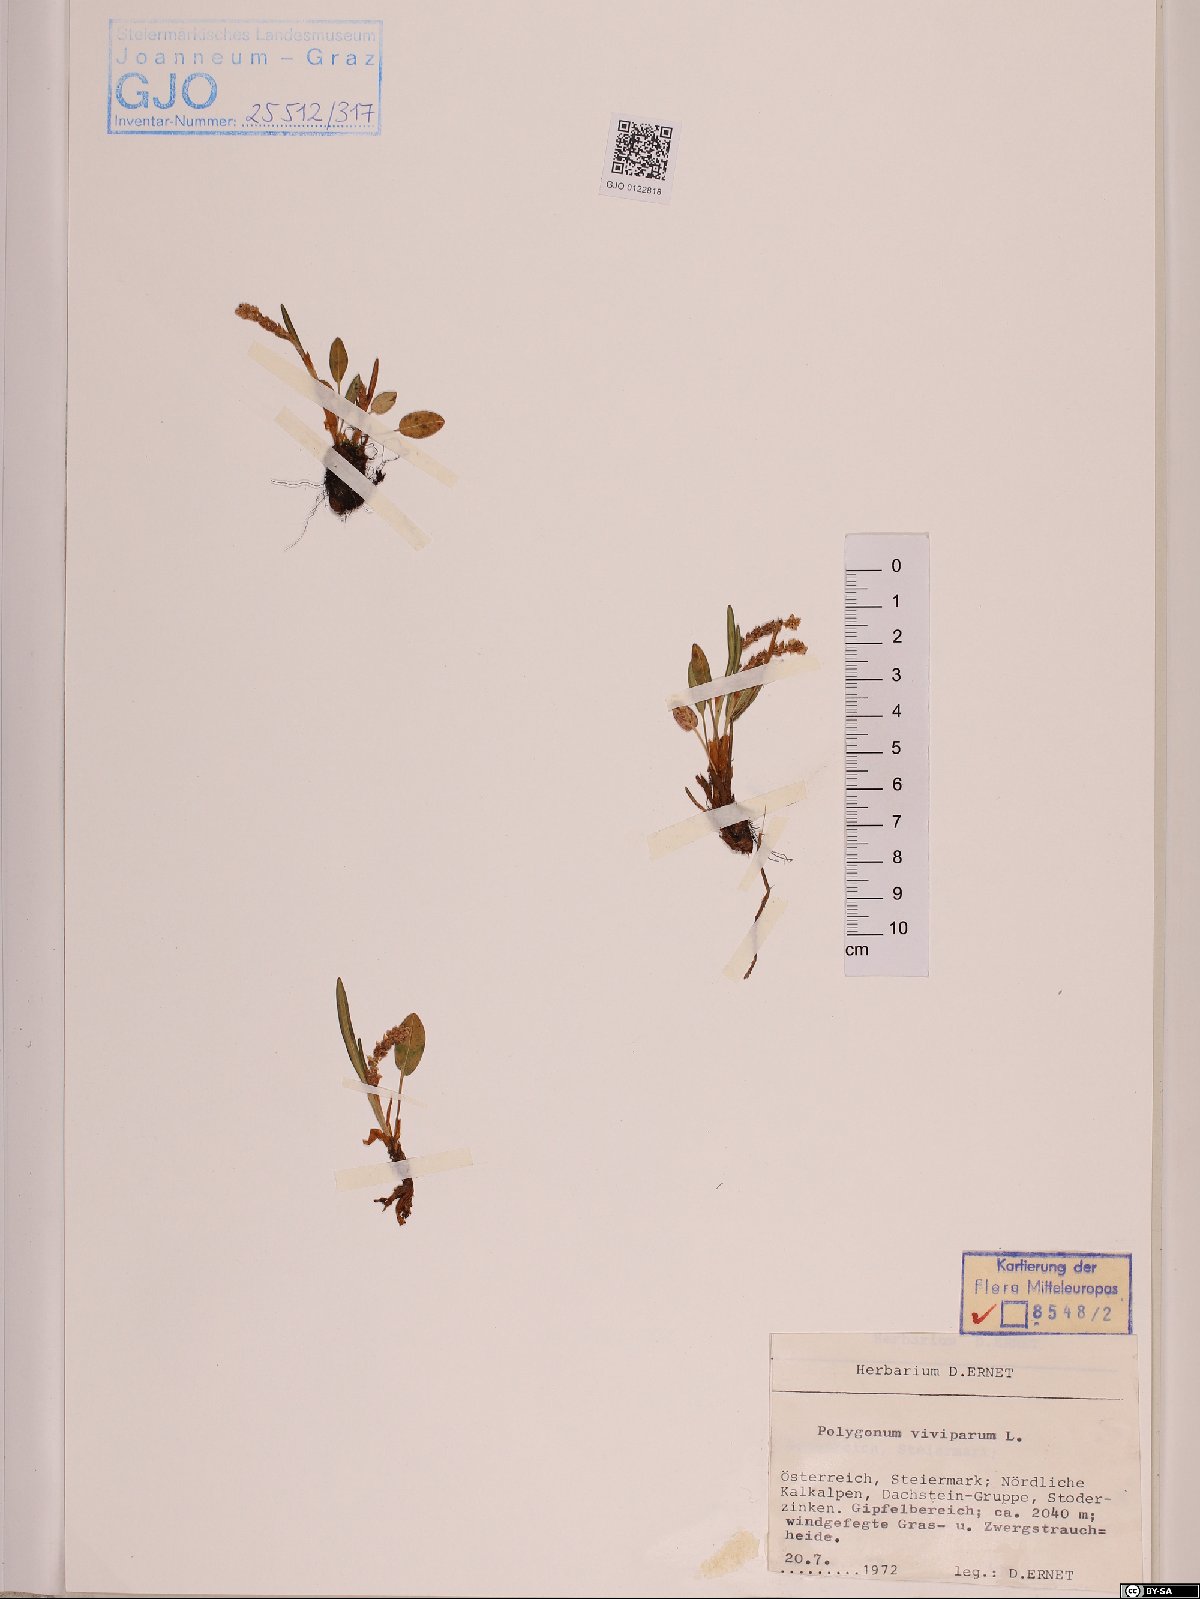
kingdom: Plantae
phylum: Tracheophyta
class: Magnoliopsida
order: Caryophyllales
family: Polygonaceae
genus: Bistorta
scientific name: Bistorta vivipara
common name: Alpine bistort
